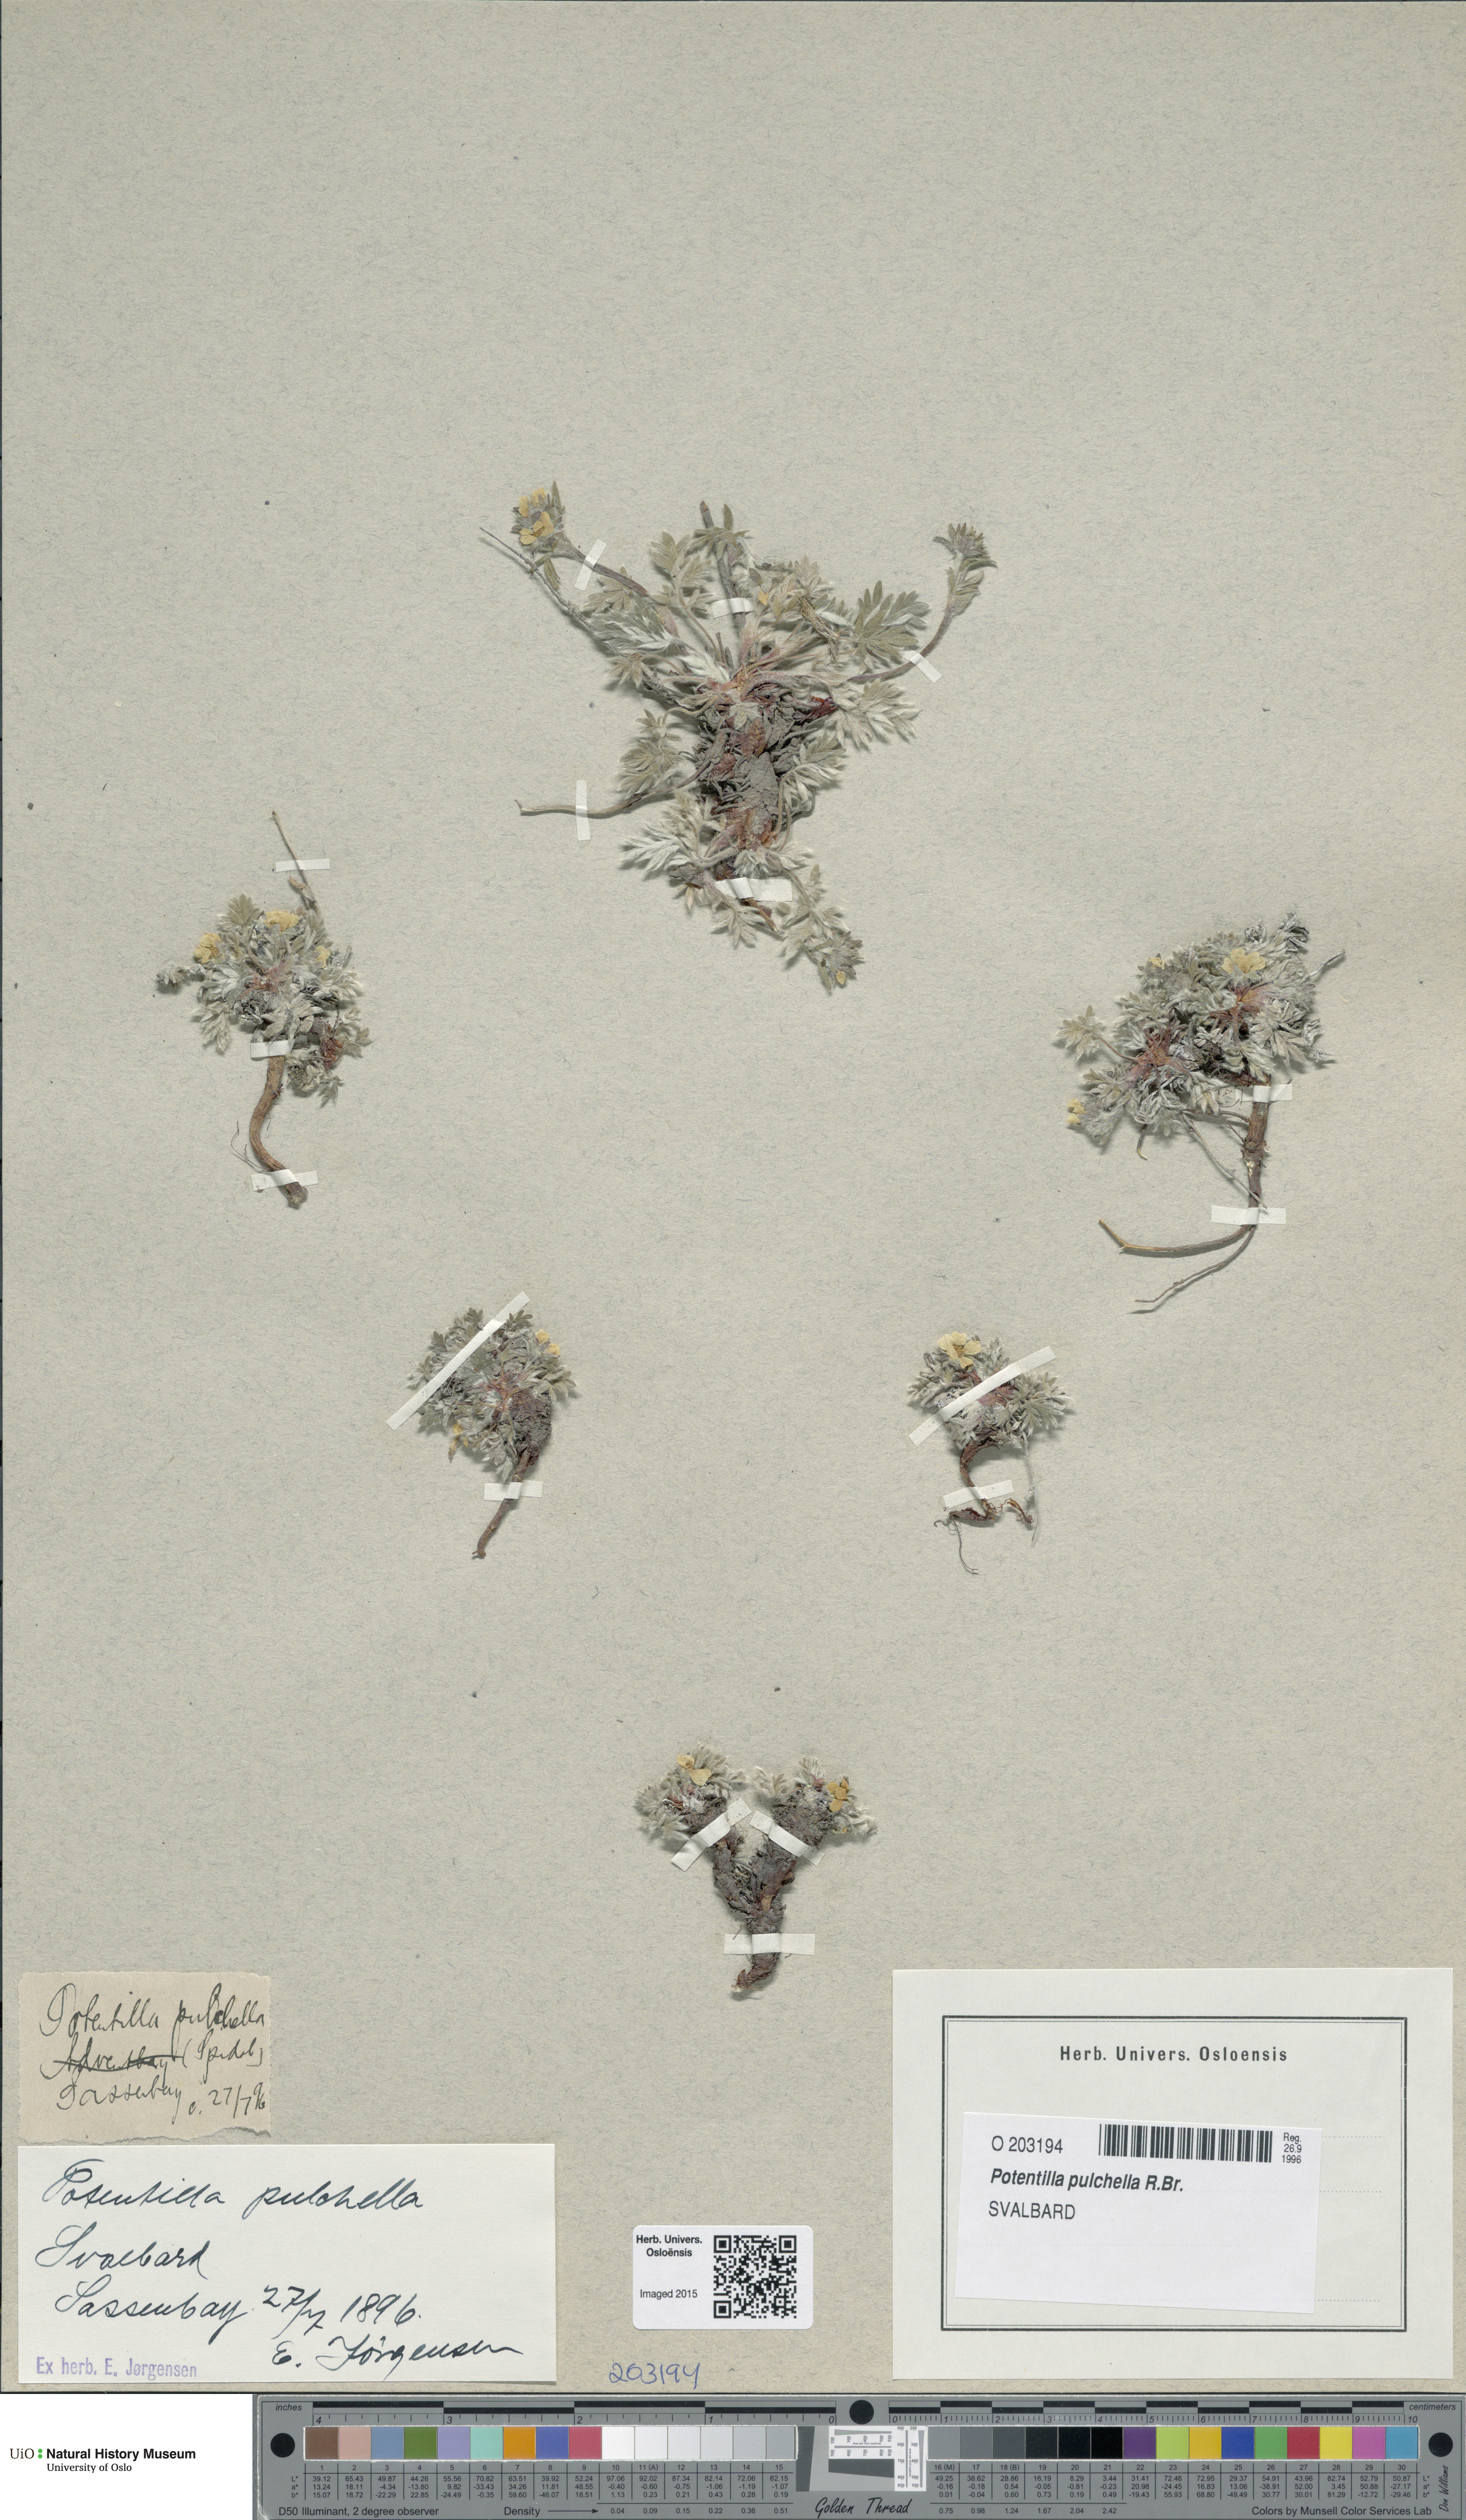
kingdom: Plantae
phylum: Tracheophyta
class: Magnoliopsida
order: Rosales
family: Rosaceae
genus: Potentilla
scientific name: Potentilla pulchella
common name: Pretty cinquefoil
